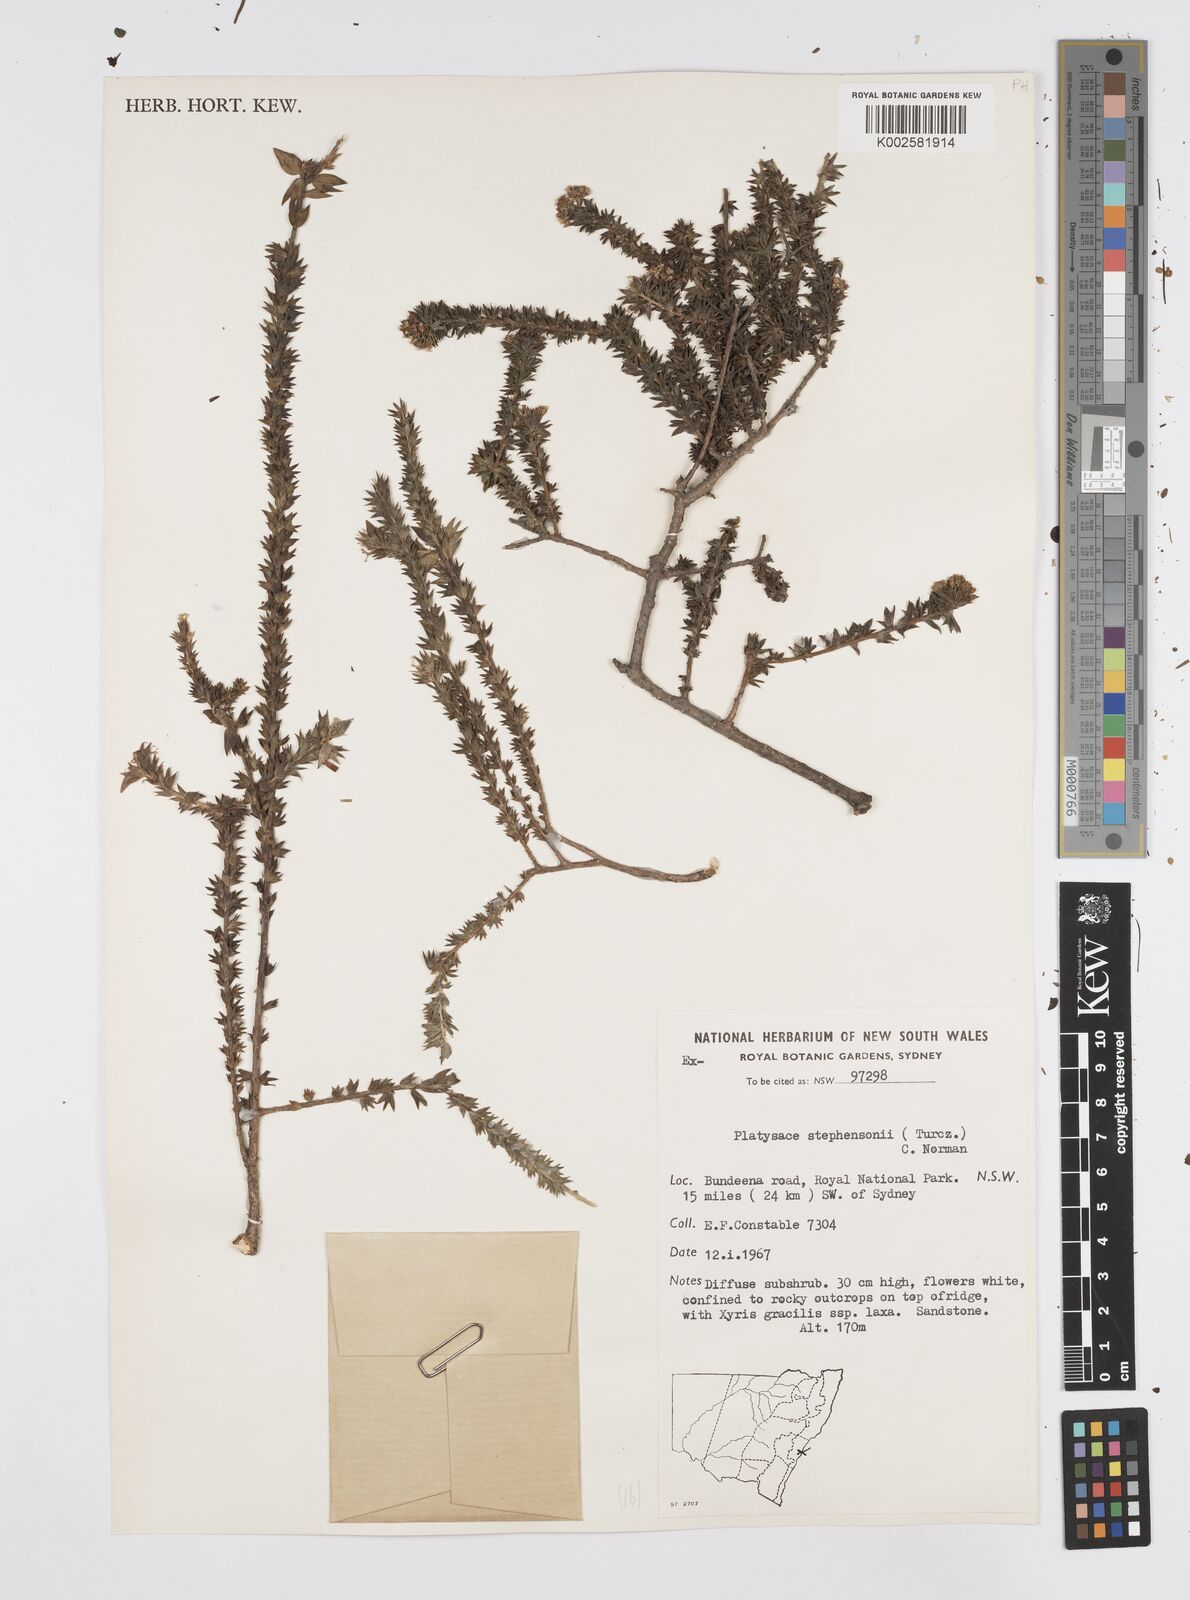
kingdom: Plantae
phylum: Tracheophyta
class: Magnoliopsida
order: Apiales
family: Apiaceae
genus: Platysace
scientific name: Platysace stephensonii
